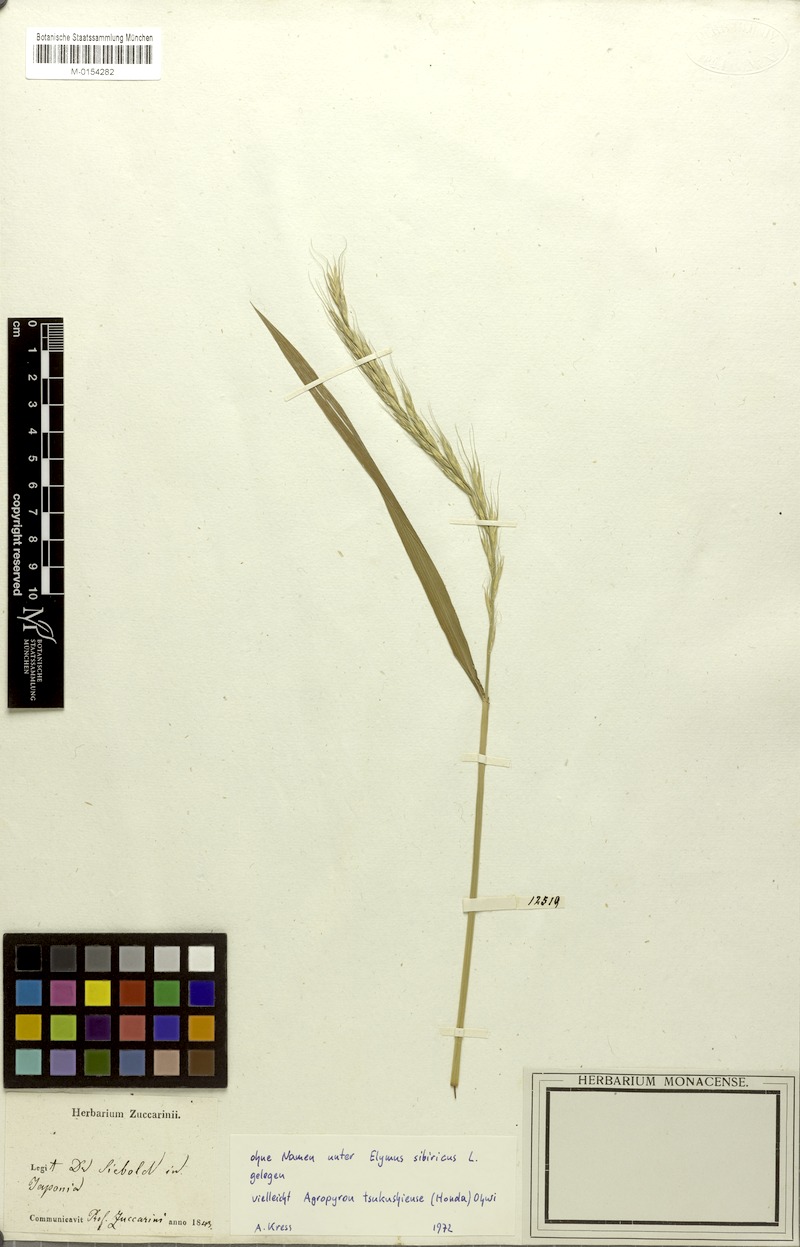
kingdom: Plantae
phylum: Tracheophyta
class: Liliopsida
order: Poales
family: Poaceae
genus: Elymus
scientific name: Elymus tsukushiensis
